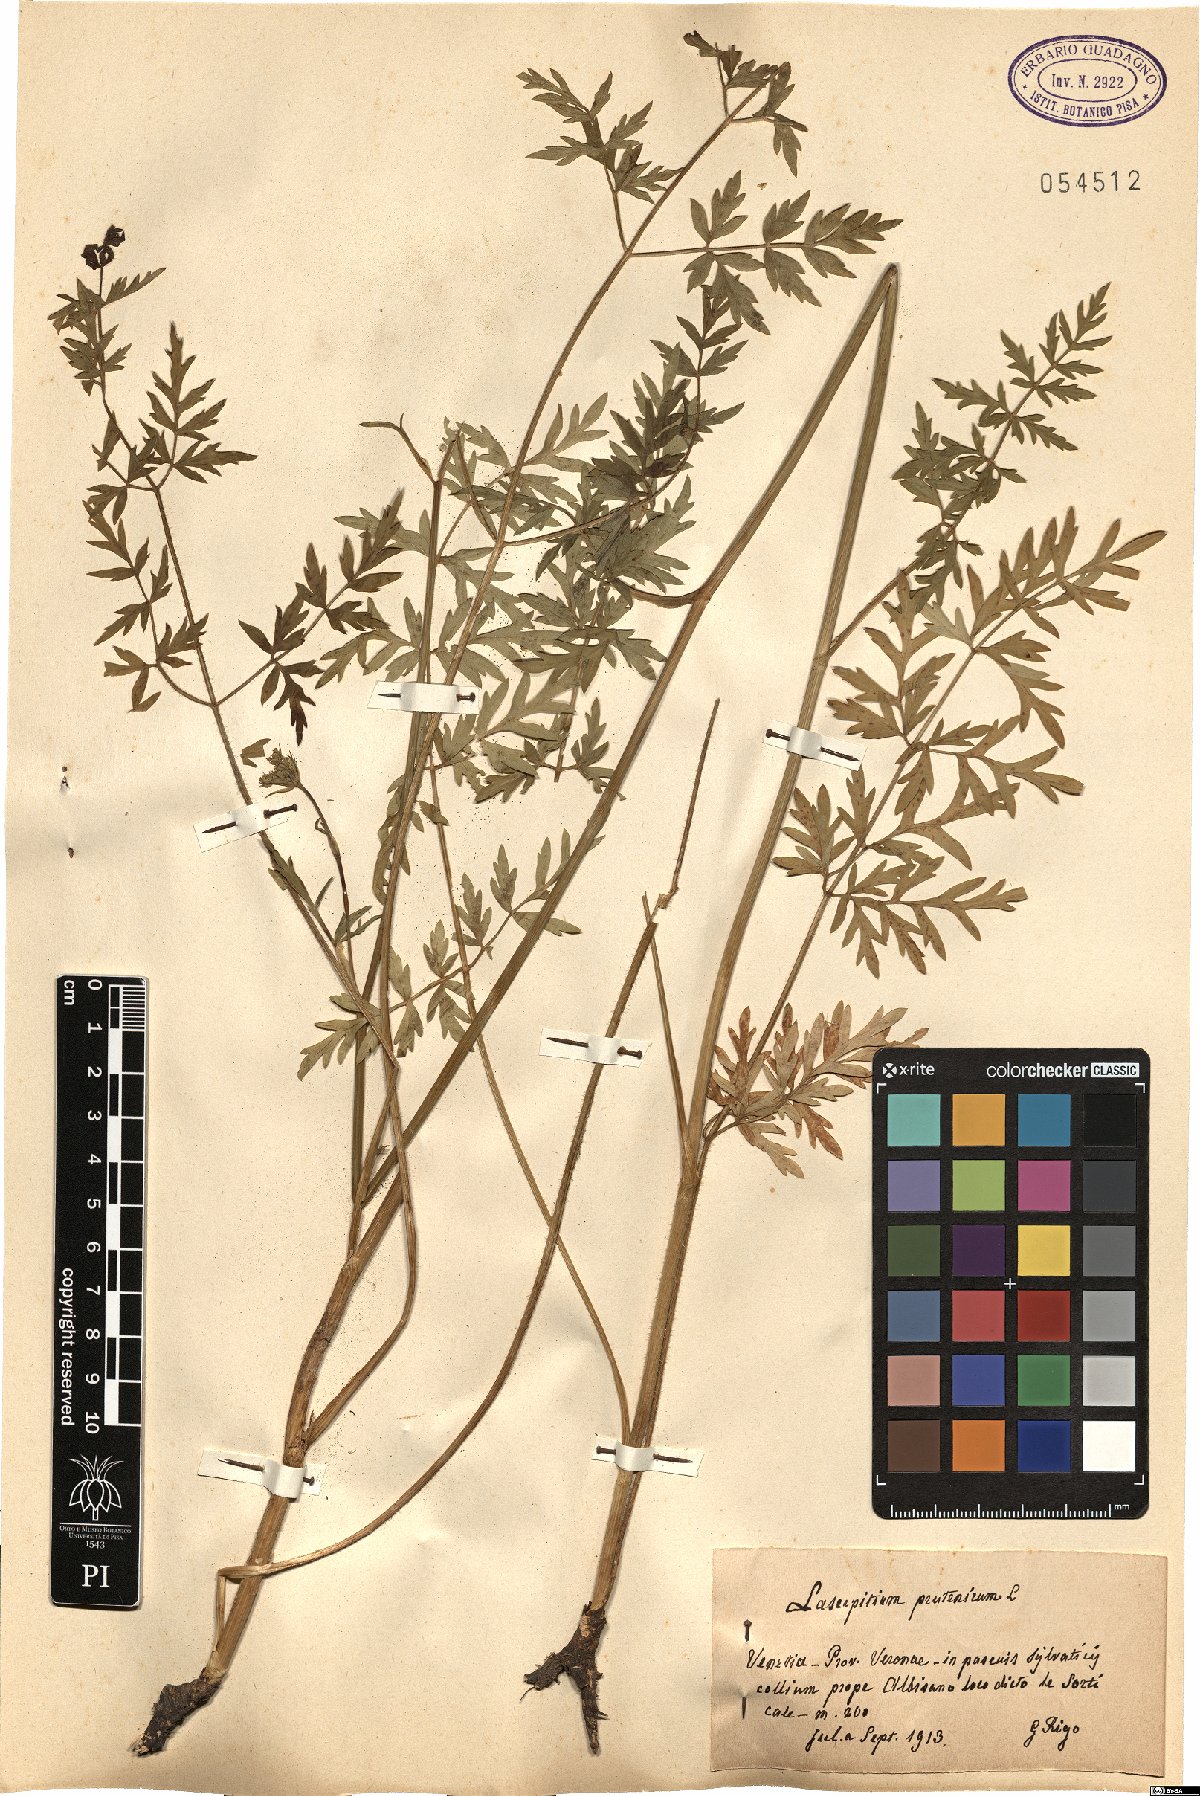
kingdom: Plantae
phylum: Tracheophyta
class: Magnoliopsida
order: Apiales
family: Apiaceae
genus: Silphiodaucus
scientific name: Silphiodaucus prutenicus
